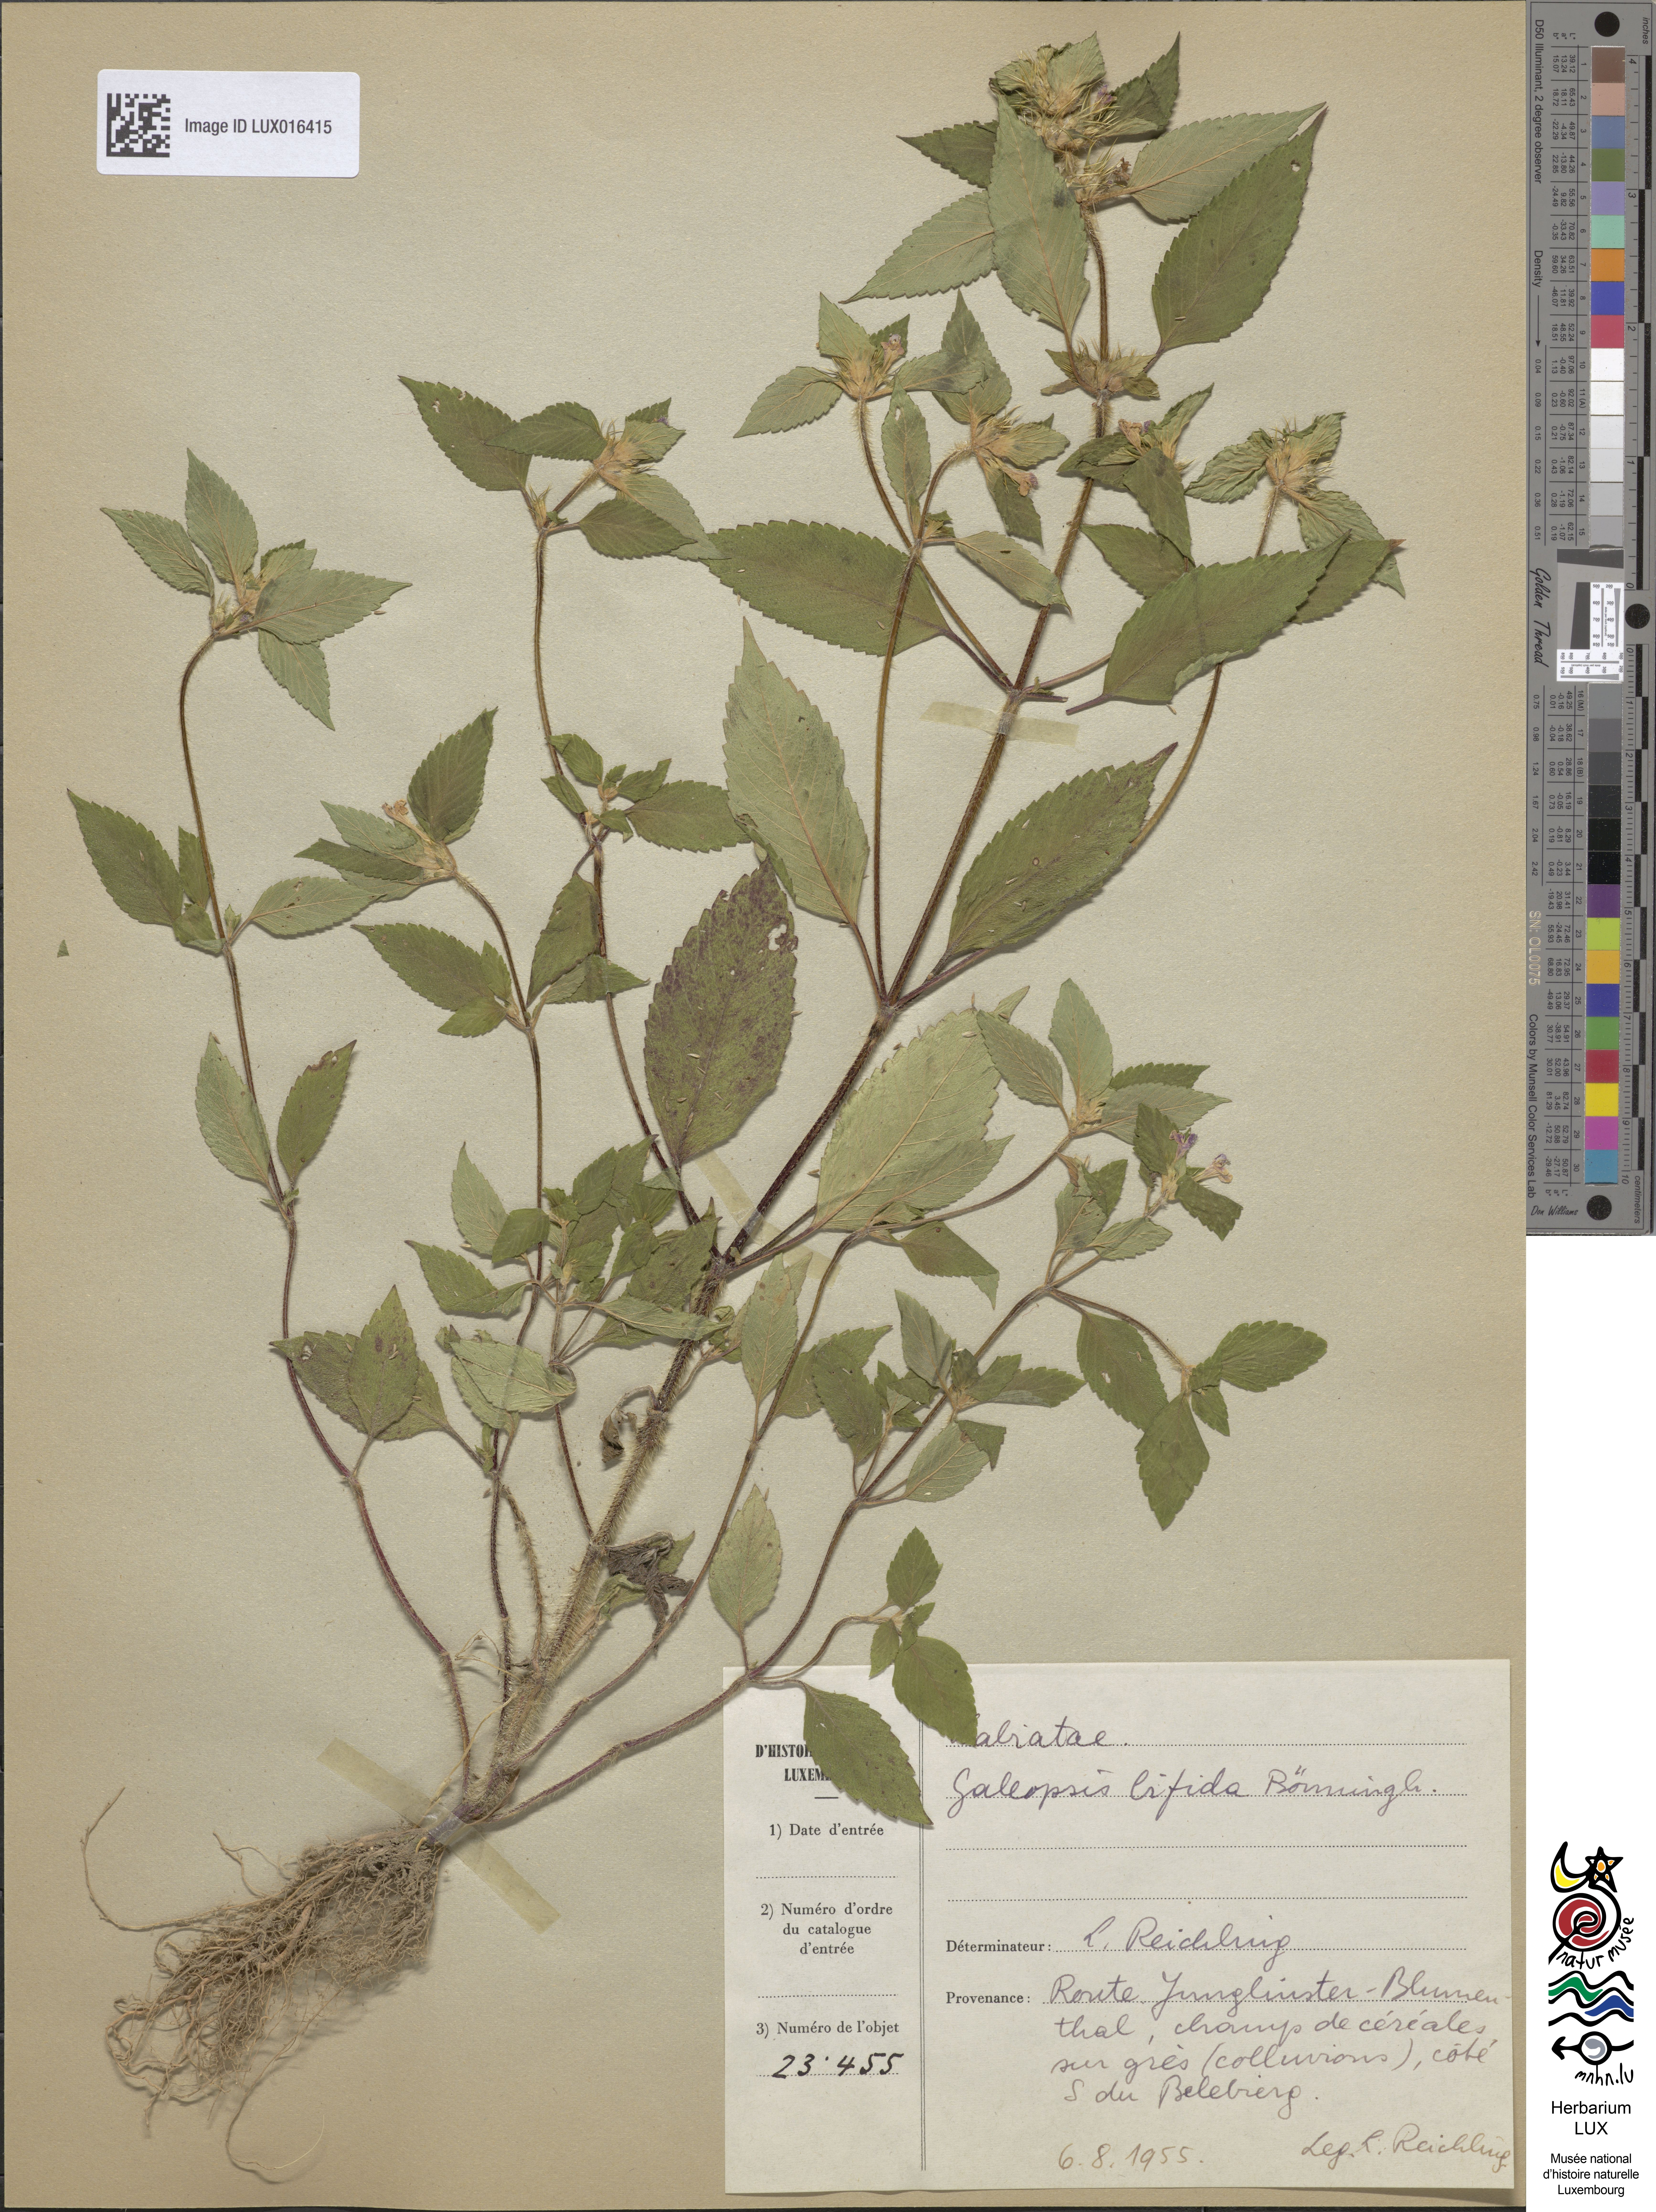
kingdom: Plantae
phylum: Tracheophyta
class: Magnoliopsida
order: Lamiales
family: Lamiaceae
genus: Galeopsis
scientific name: Galeopsis bifida
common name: Bifid hemp-nettle
